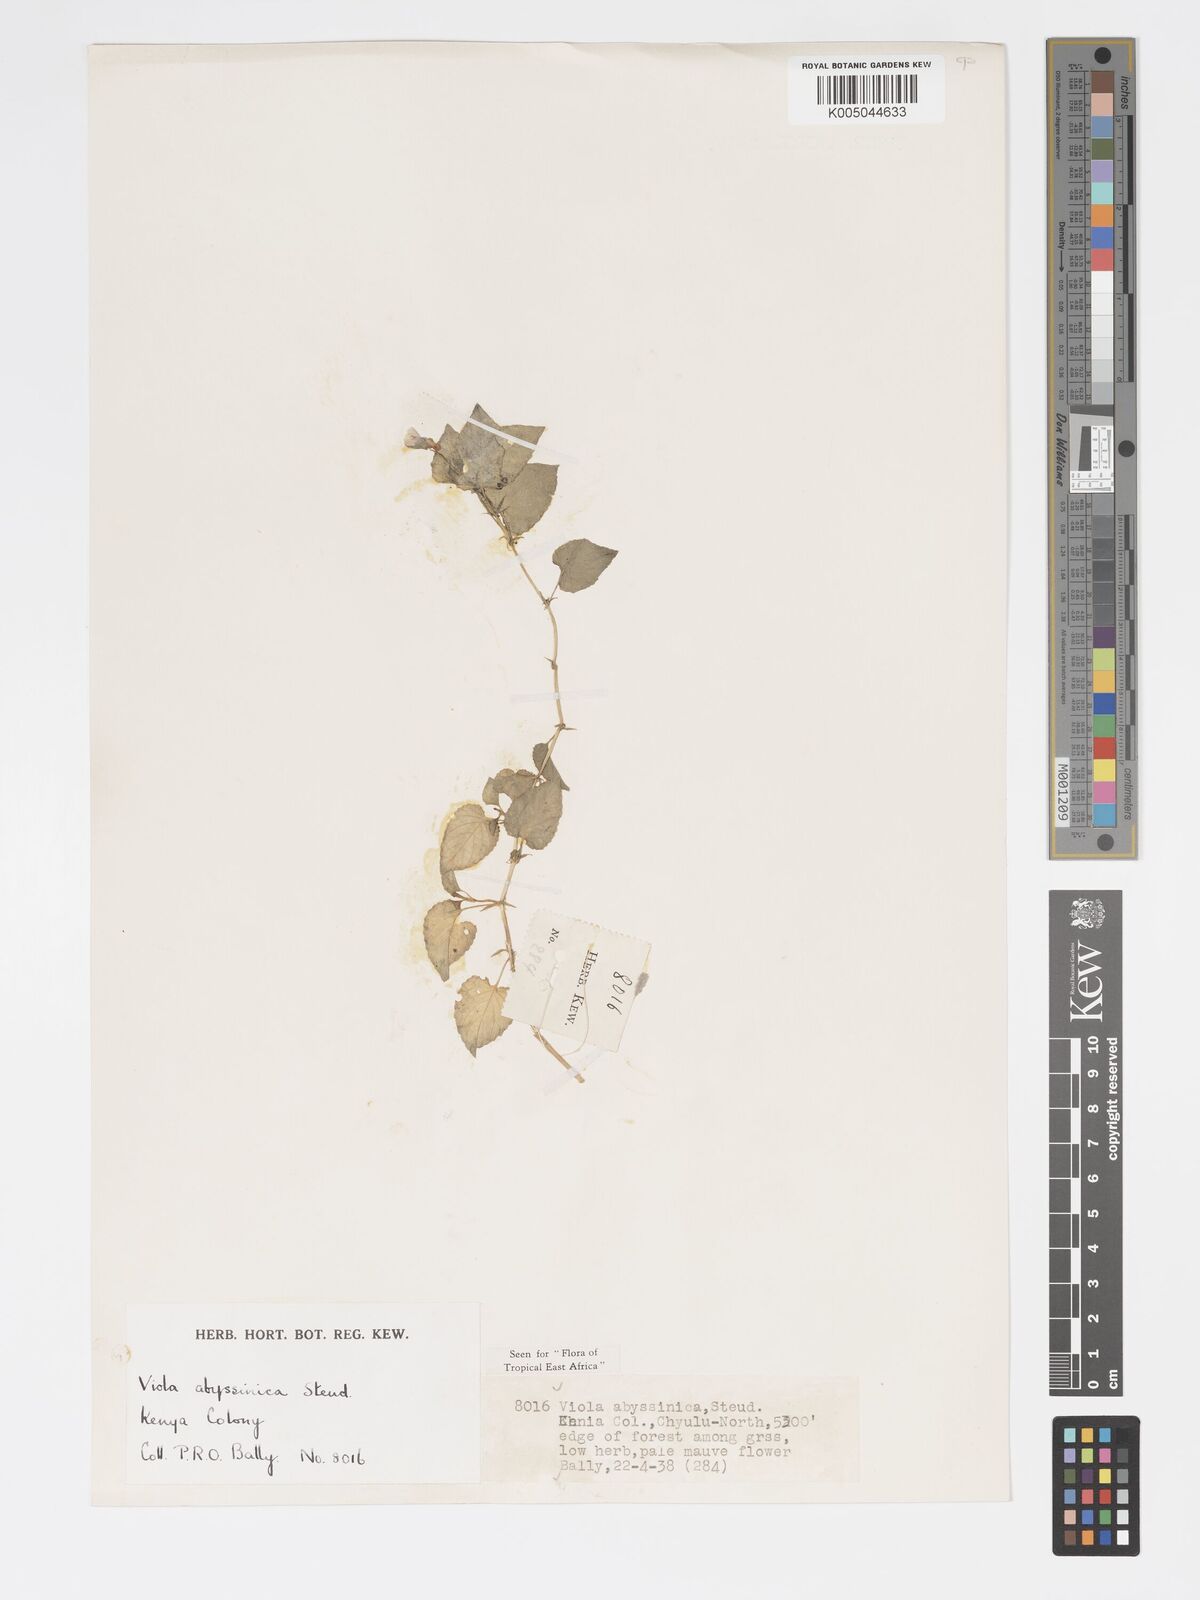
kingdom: Plantae
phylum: Tracheophyta
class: Magnoliopsida
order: Malpighiales
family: Violaceae
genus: Viola
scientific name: Viola abyssinica
